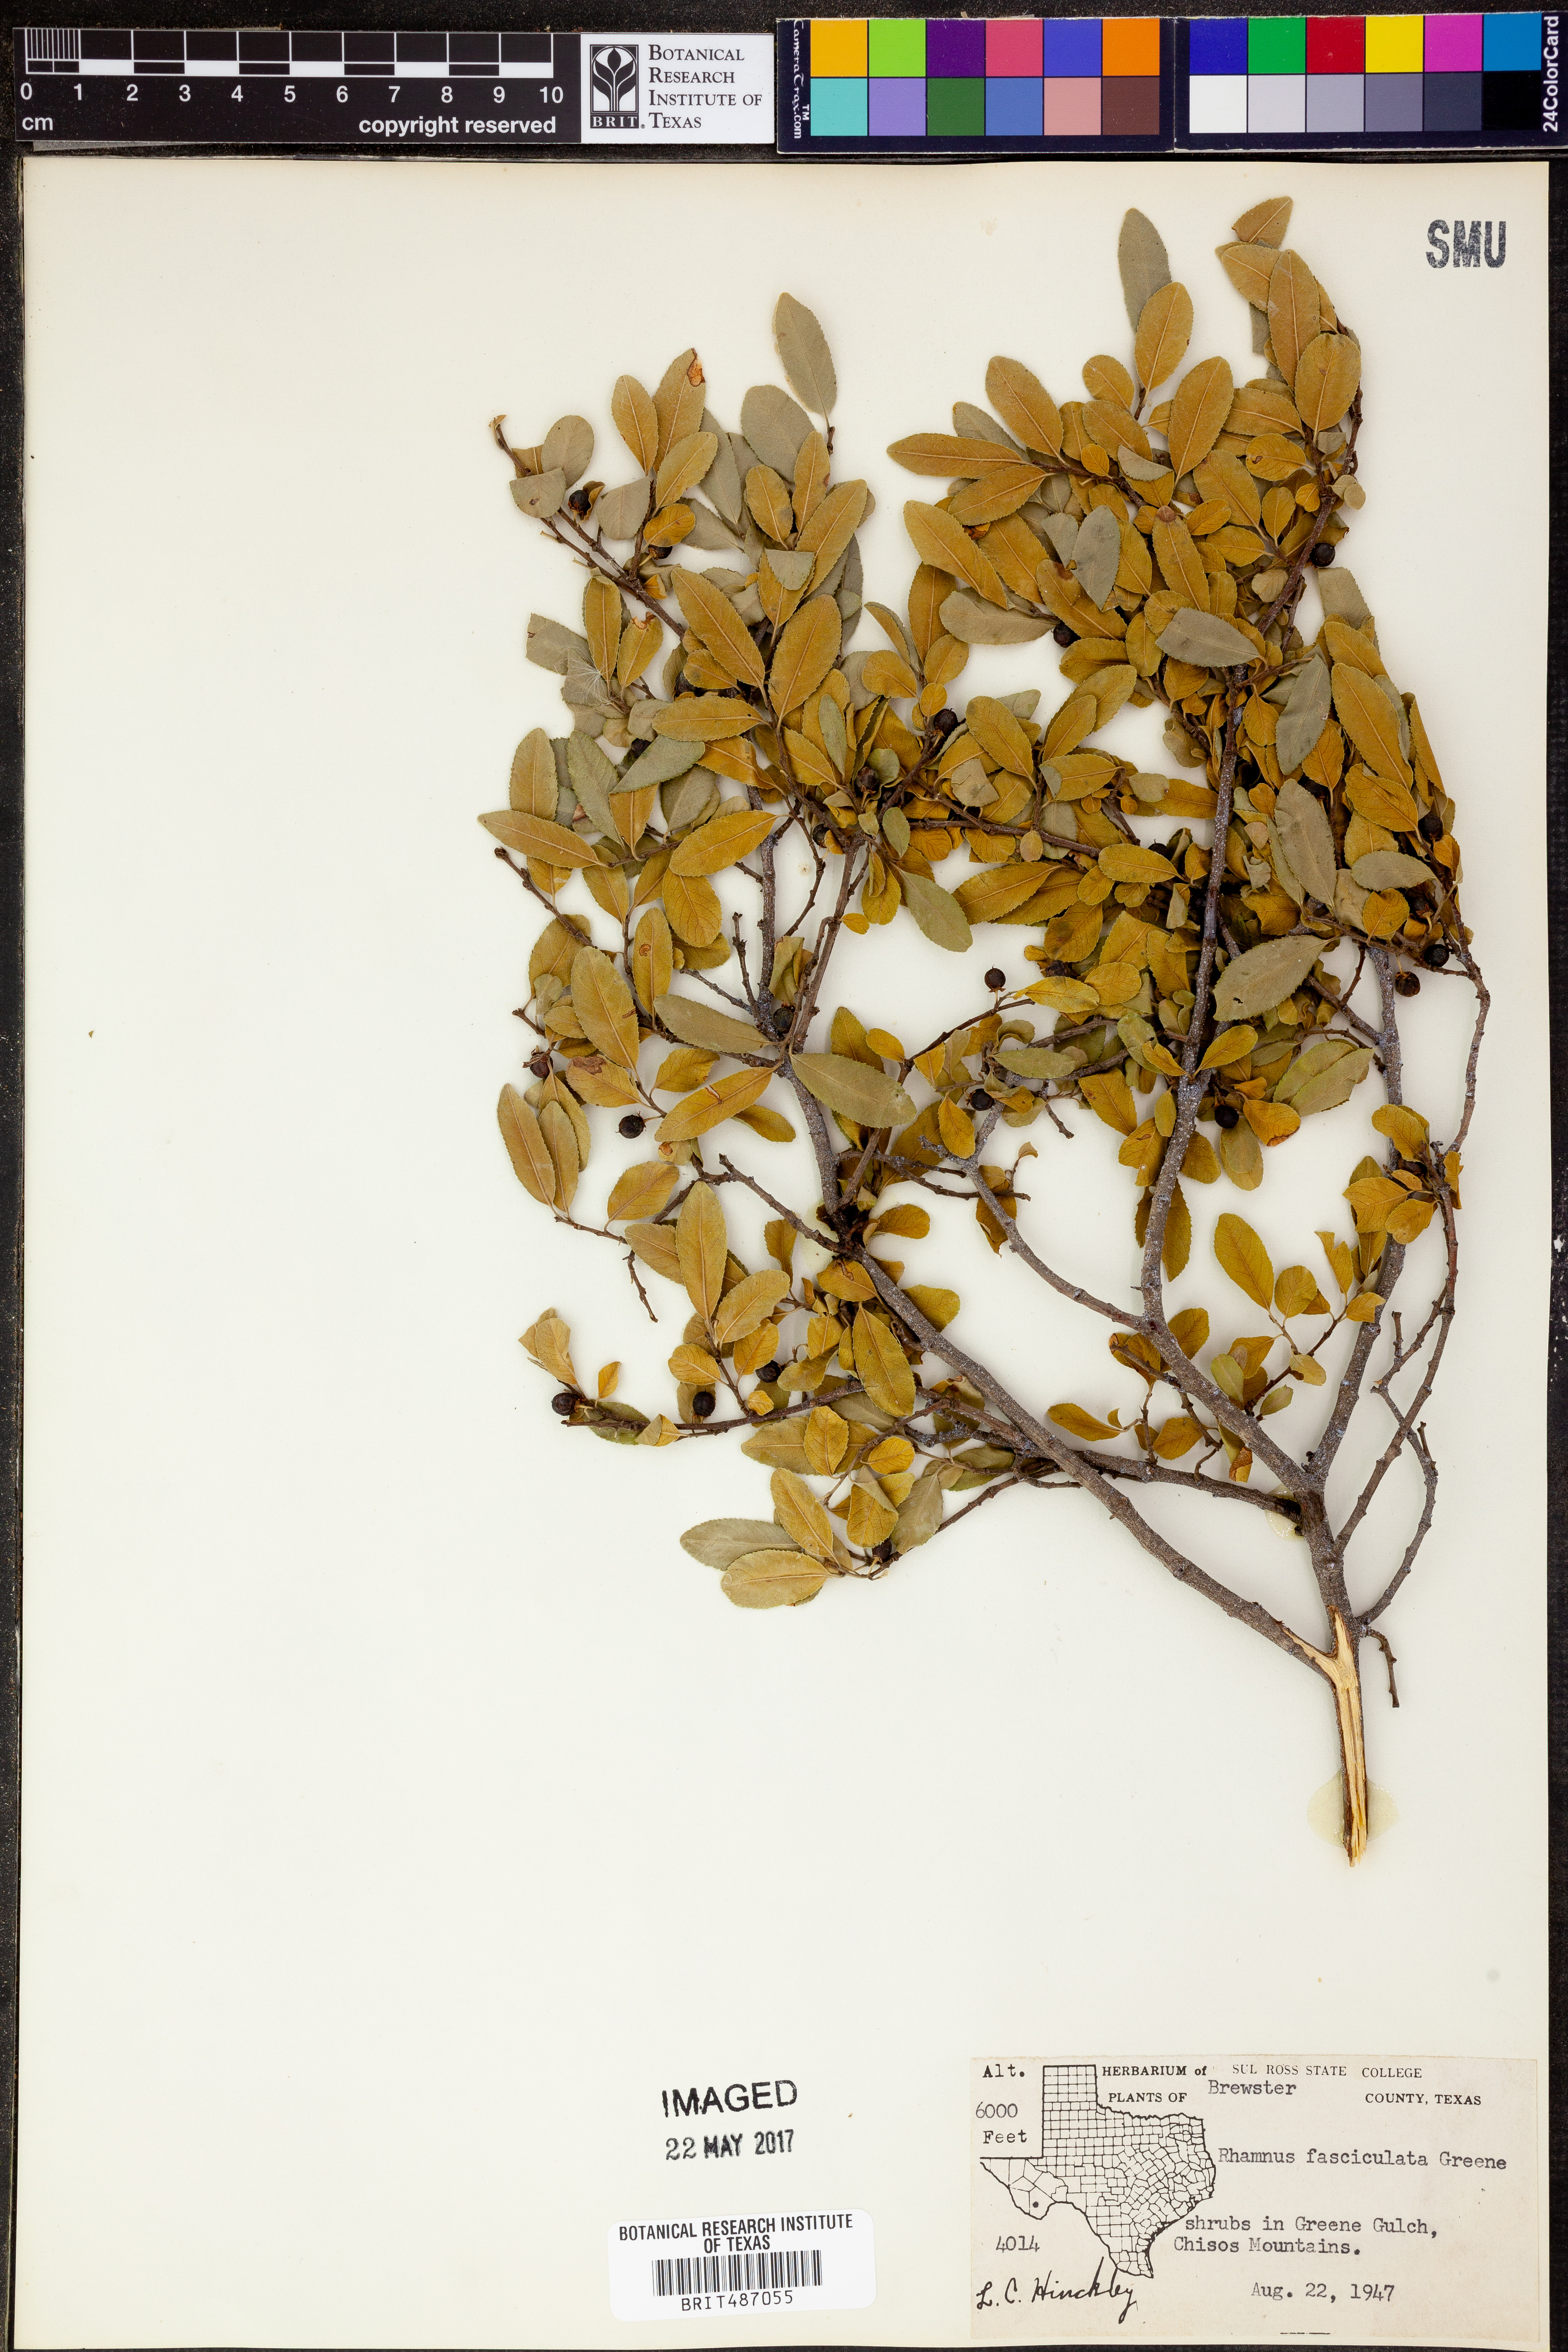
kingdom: Plantae
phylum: Tracheophyta
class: Magnoliopsida
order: Rosales
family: Rhamnaceae
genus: Endotropis
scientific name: Endotropis serrata
